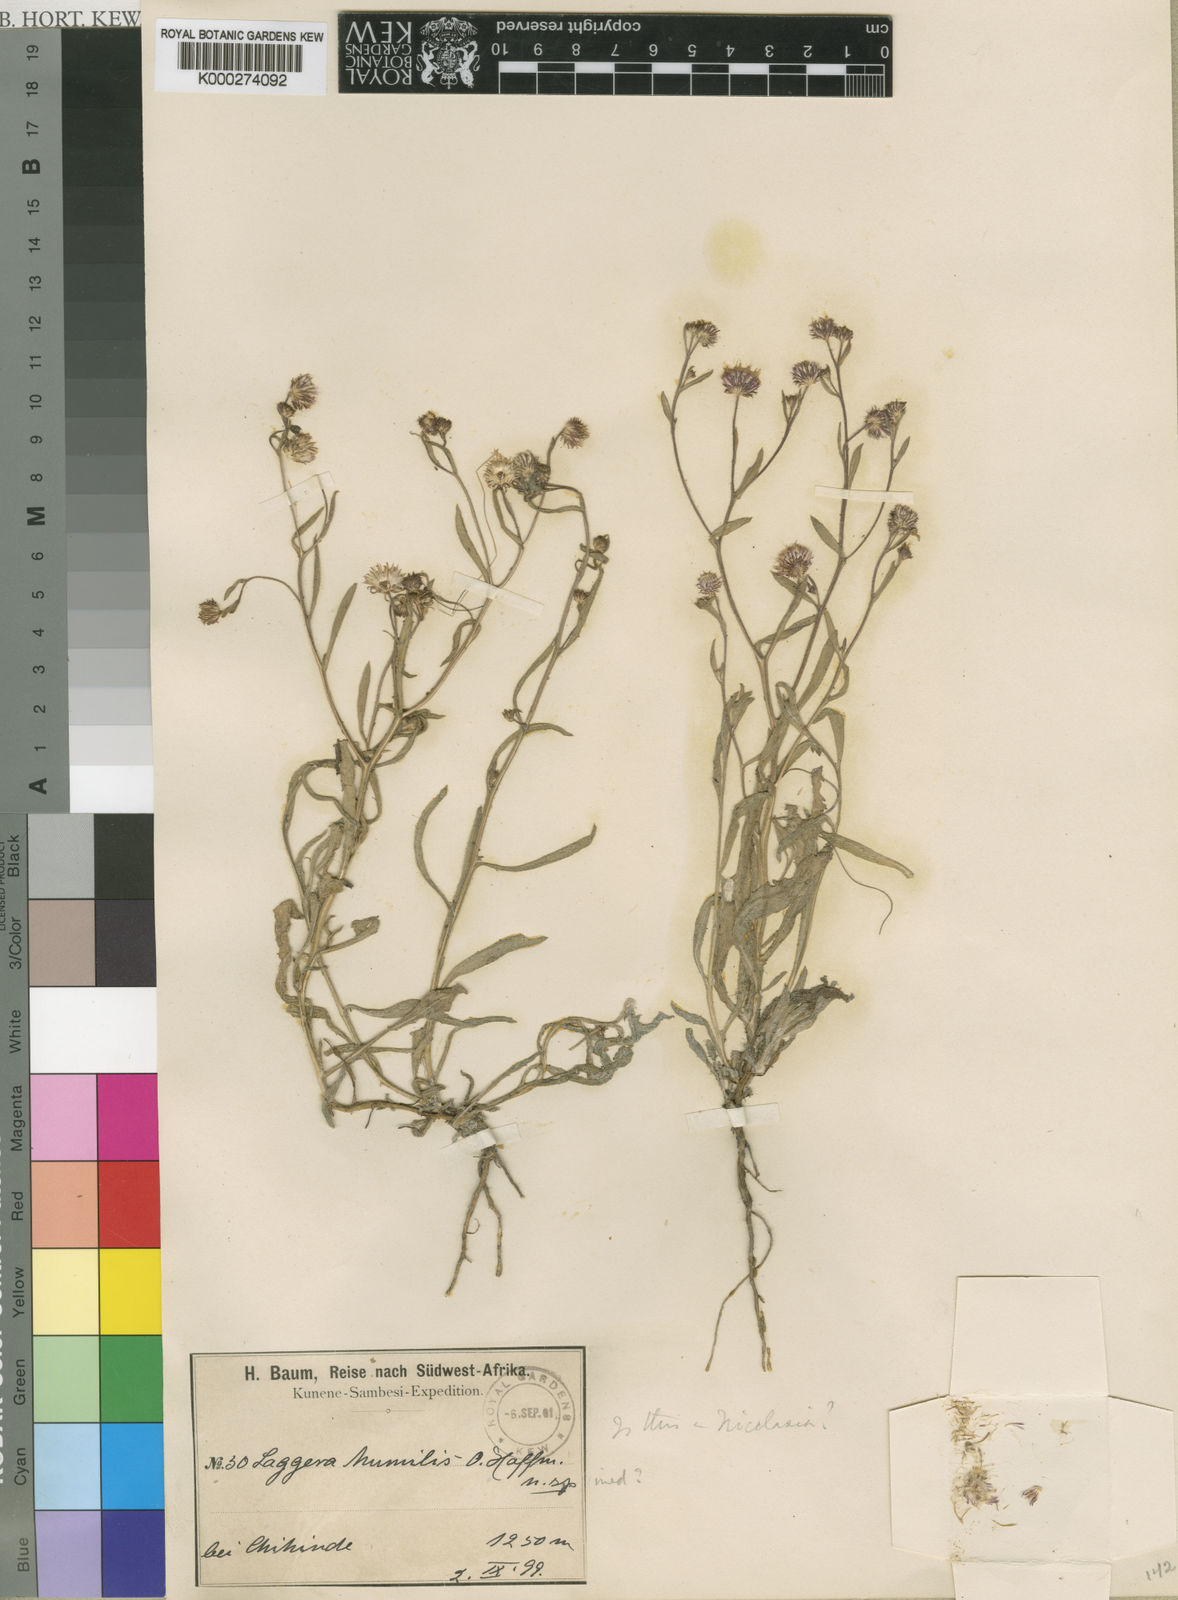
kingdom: Plantae
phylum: Tracheophyta
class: Magnoliopsida
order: Asterales
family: Asteraceae
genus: Nicolasia
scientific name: Nicolasia felicioides
